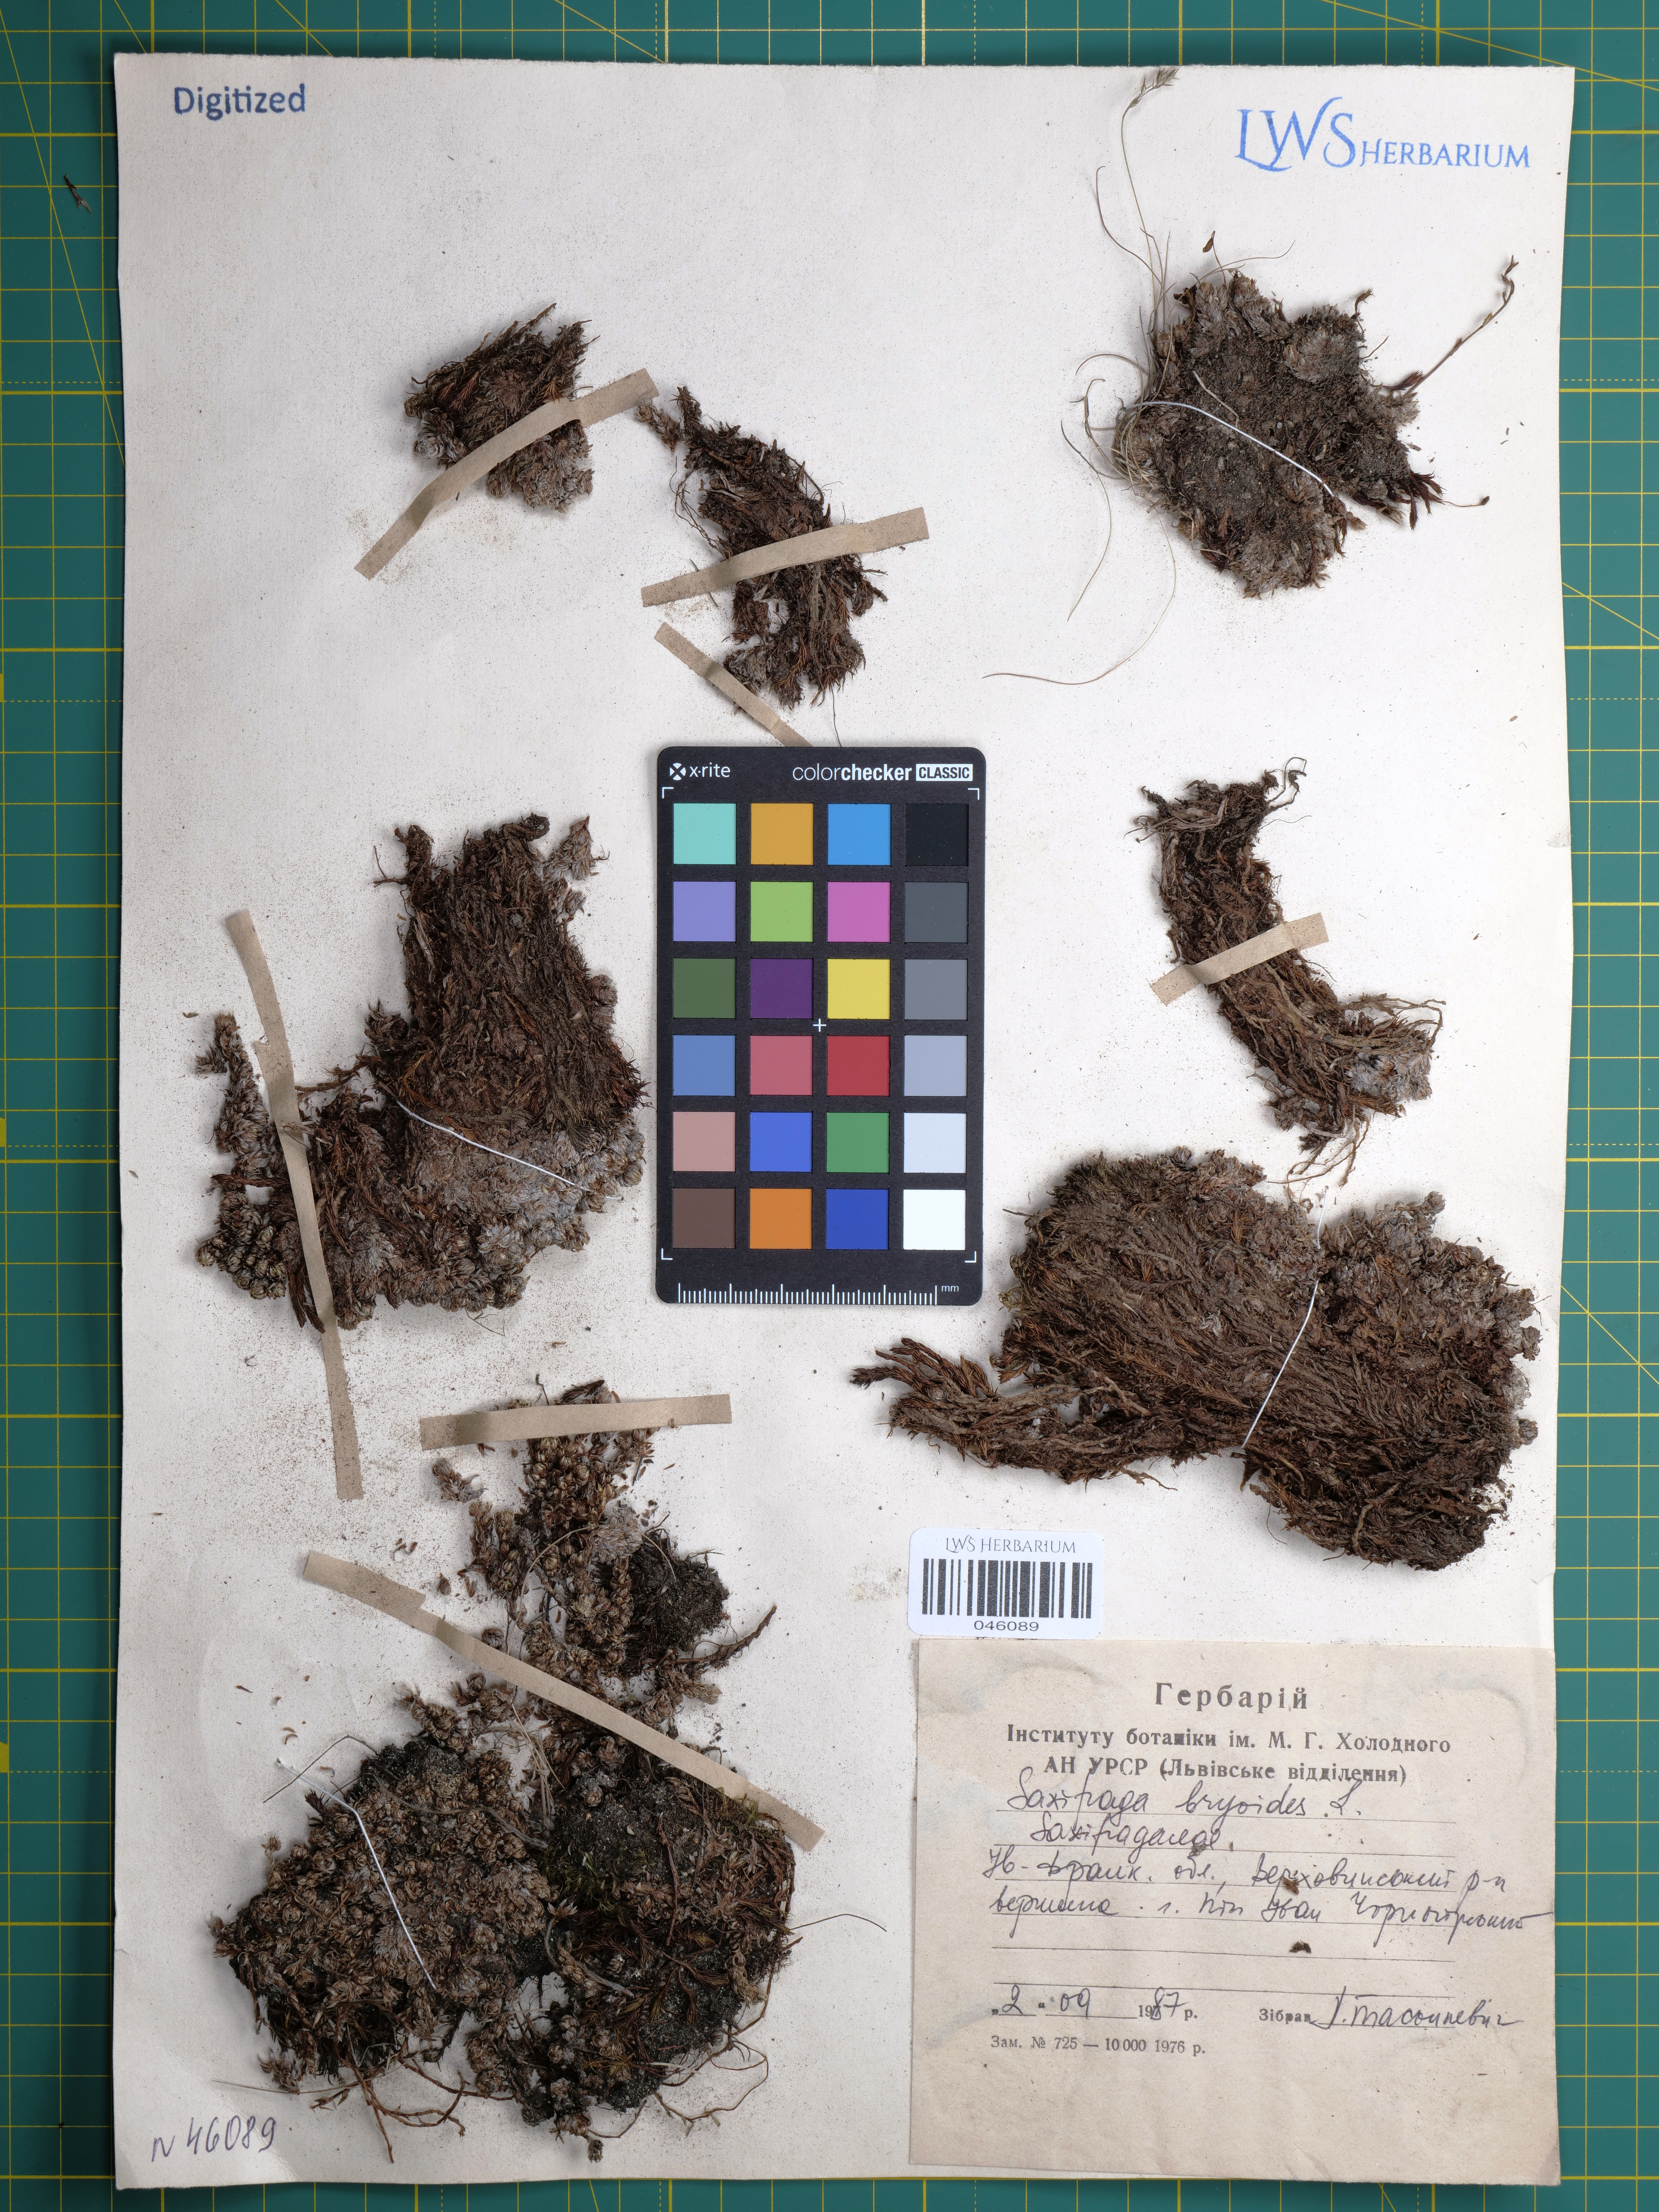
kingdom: Plantae
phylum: Tracheophyta
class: Magnoliopsida
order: Saxifragales
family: Saxifragaceae
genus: Saxifraga
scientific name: Saxifraga bryoides
